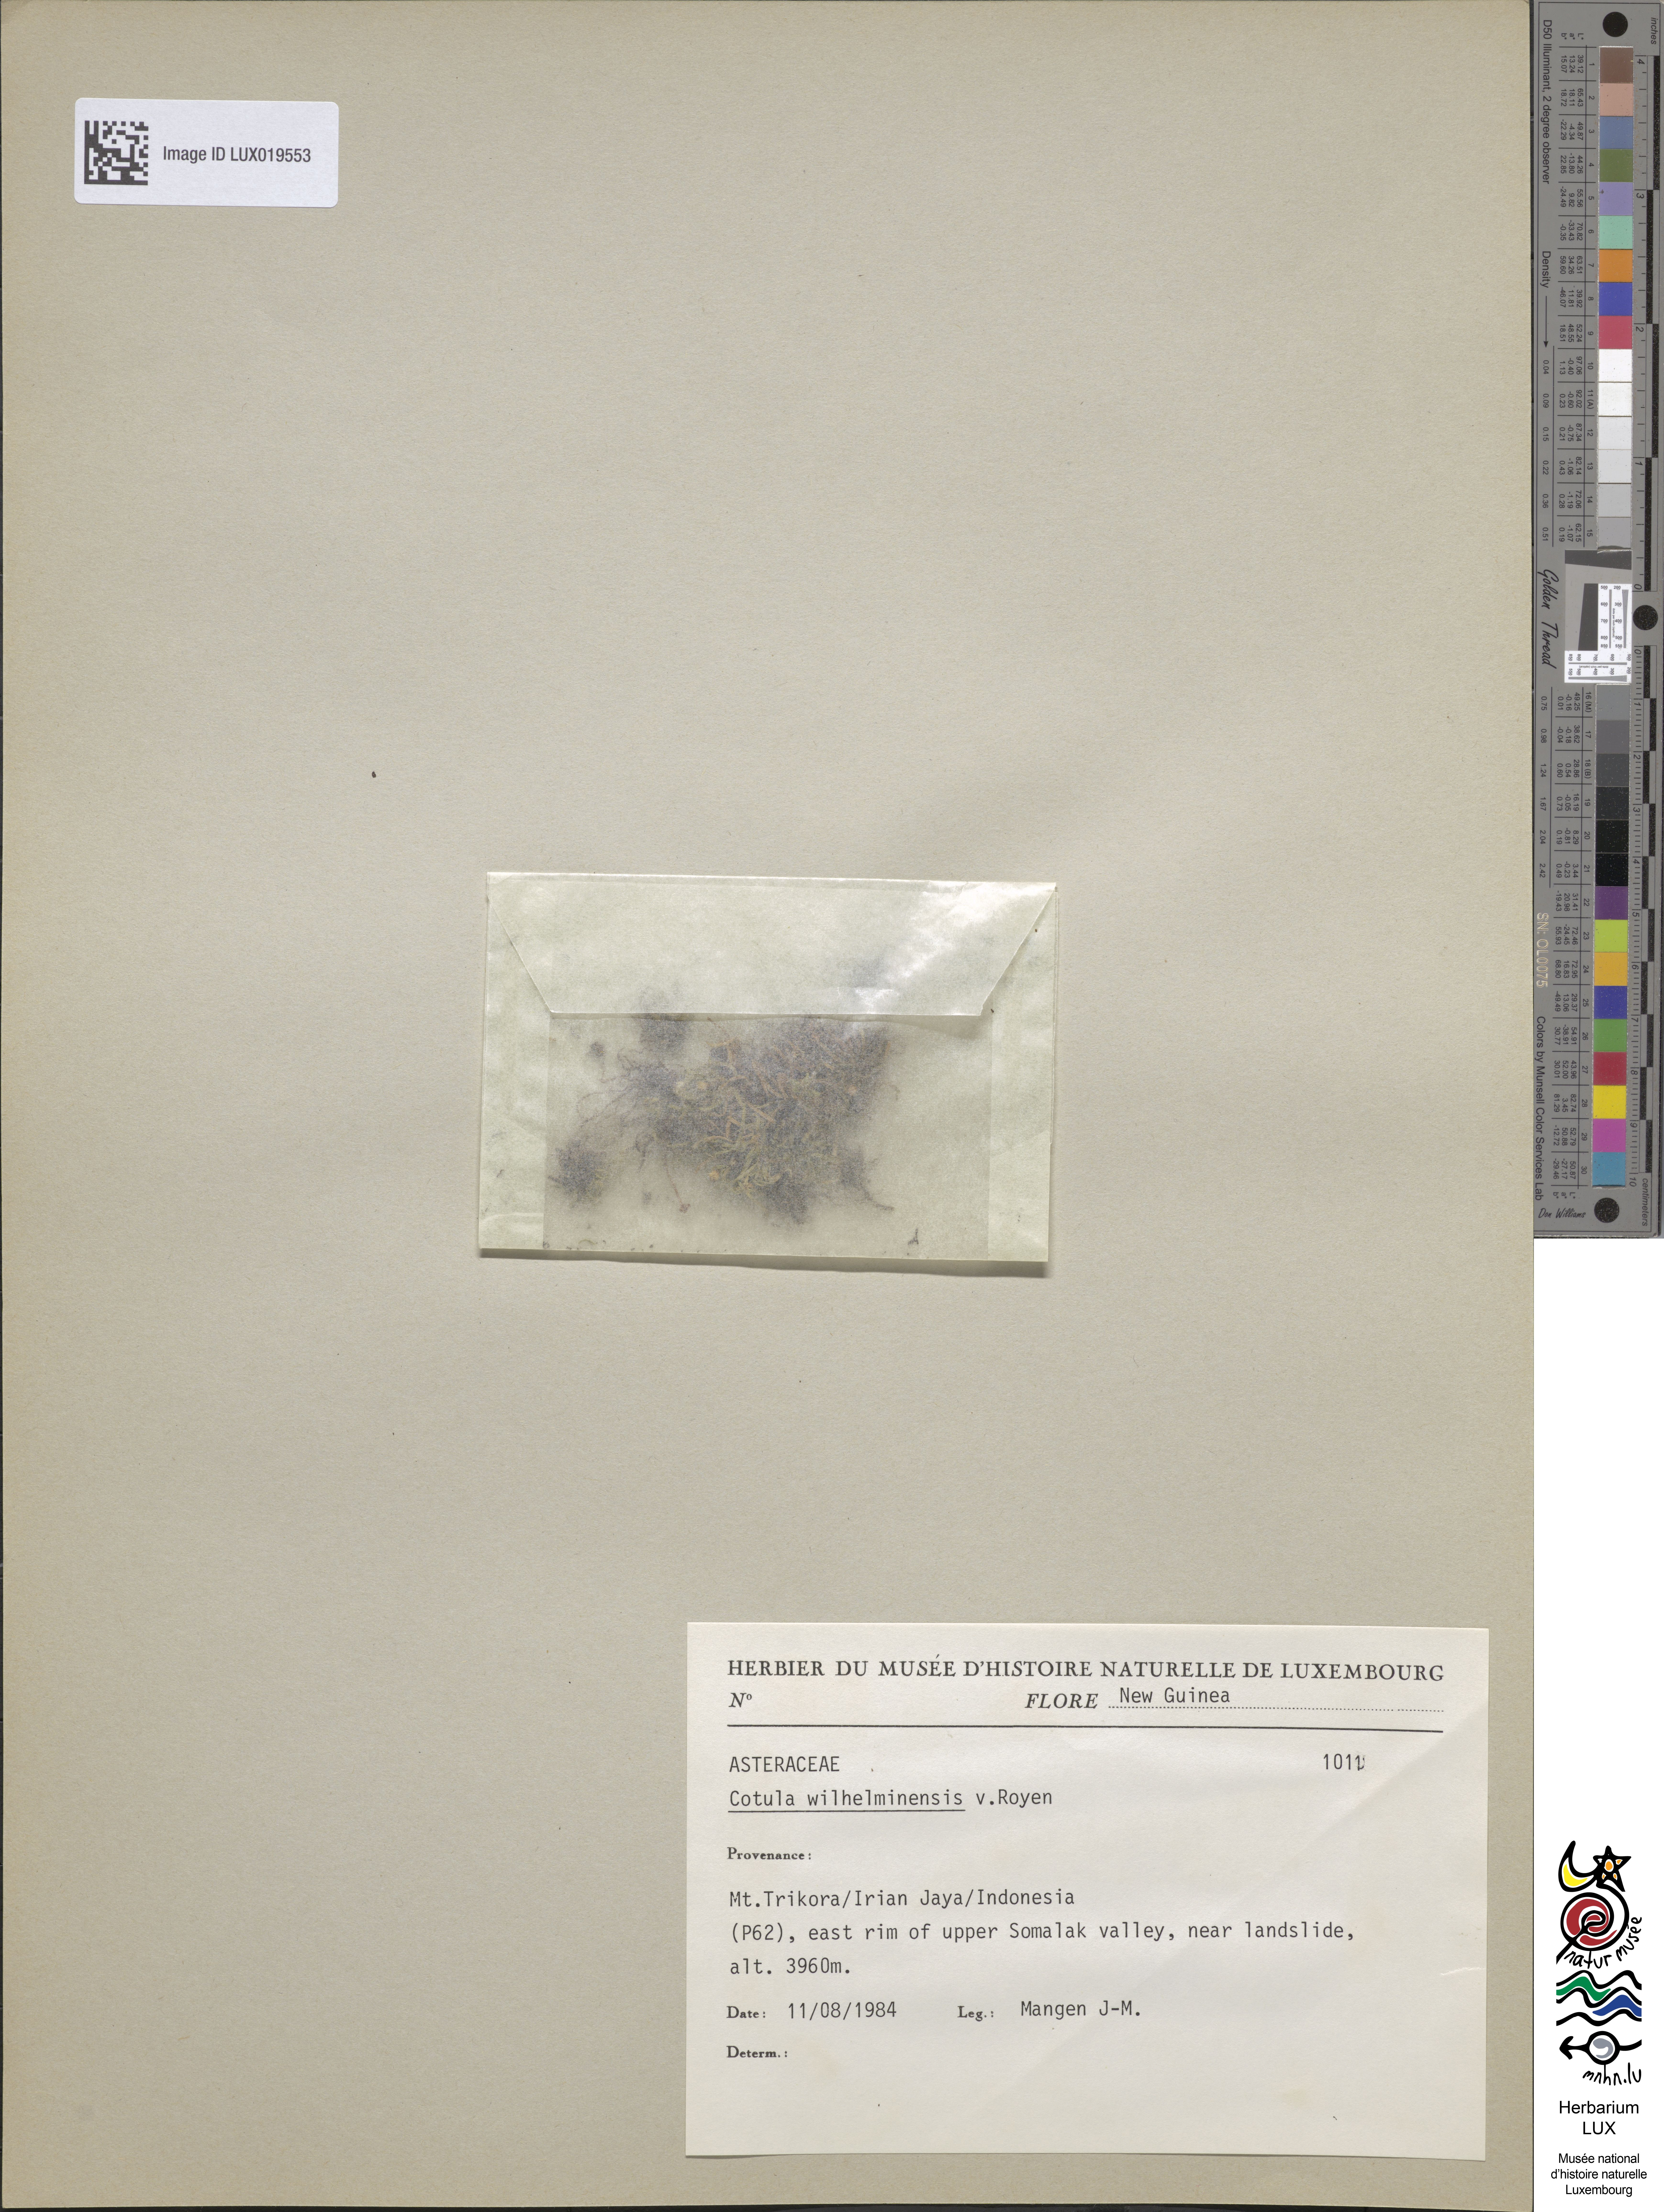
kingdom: Plantae
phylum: Tracheophyta
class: Magnoliopsida
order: Asterales
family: Asteraceae
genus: Leptinella
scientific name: Leptinella wilhelminensis
